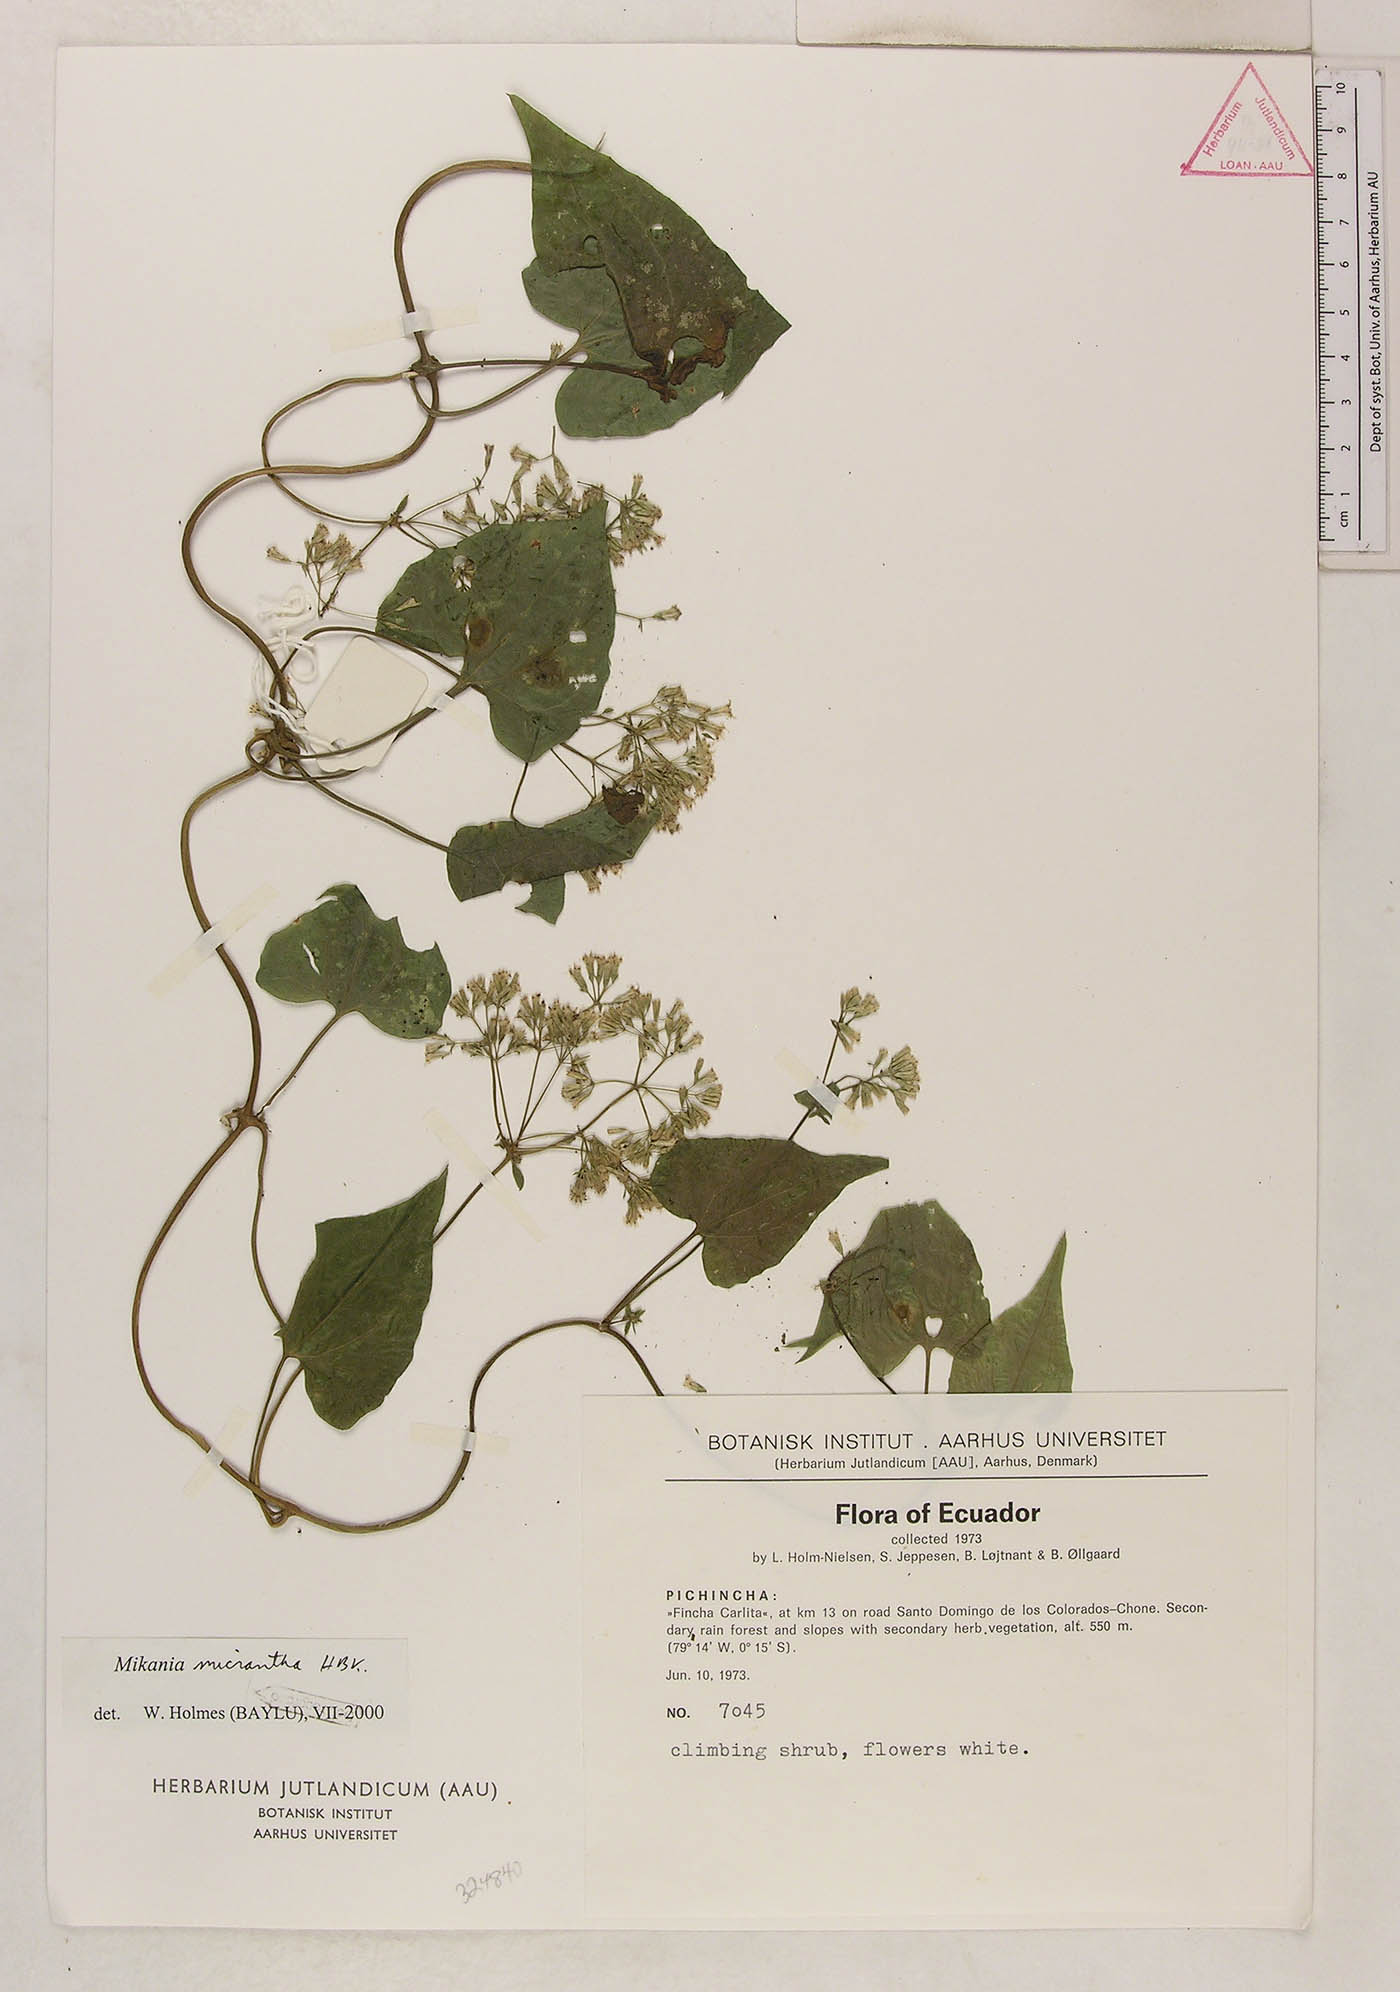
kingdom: Plantae
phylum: Tracheophyta
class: Magnoliopsida
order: Asterales
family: Asteraceae
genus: Mikania
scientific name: Mikania micrantha
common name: Mile-a-minute
